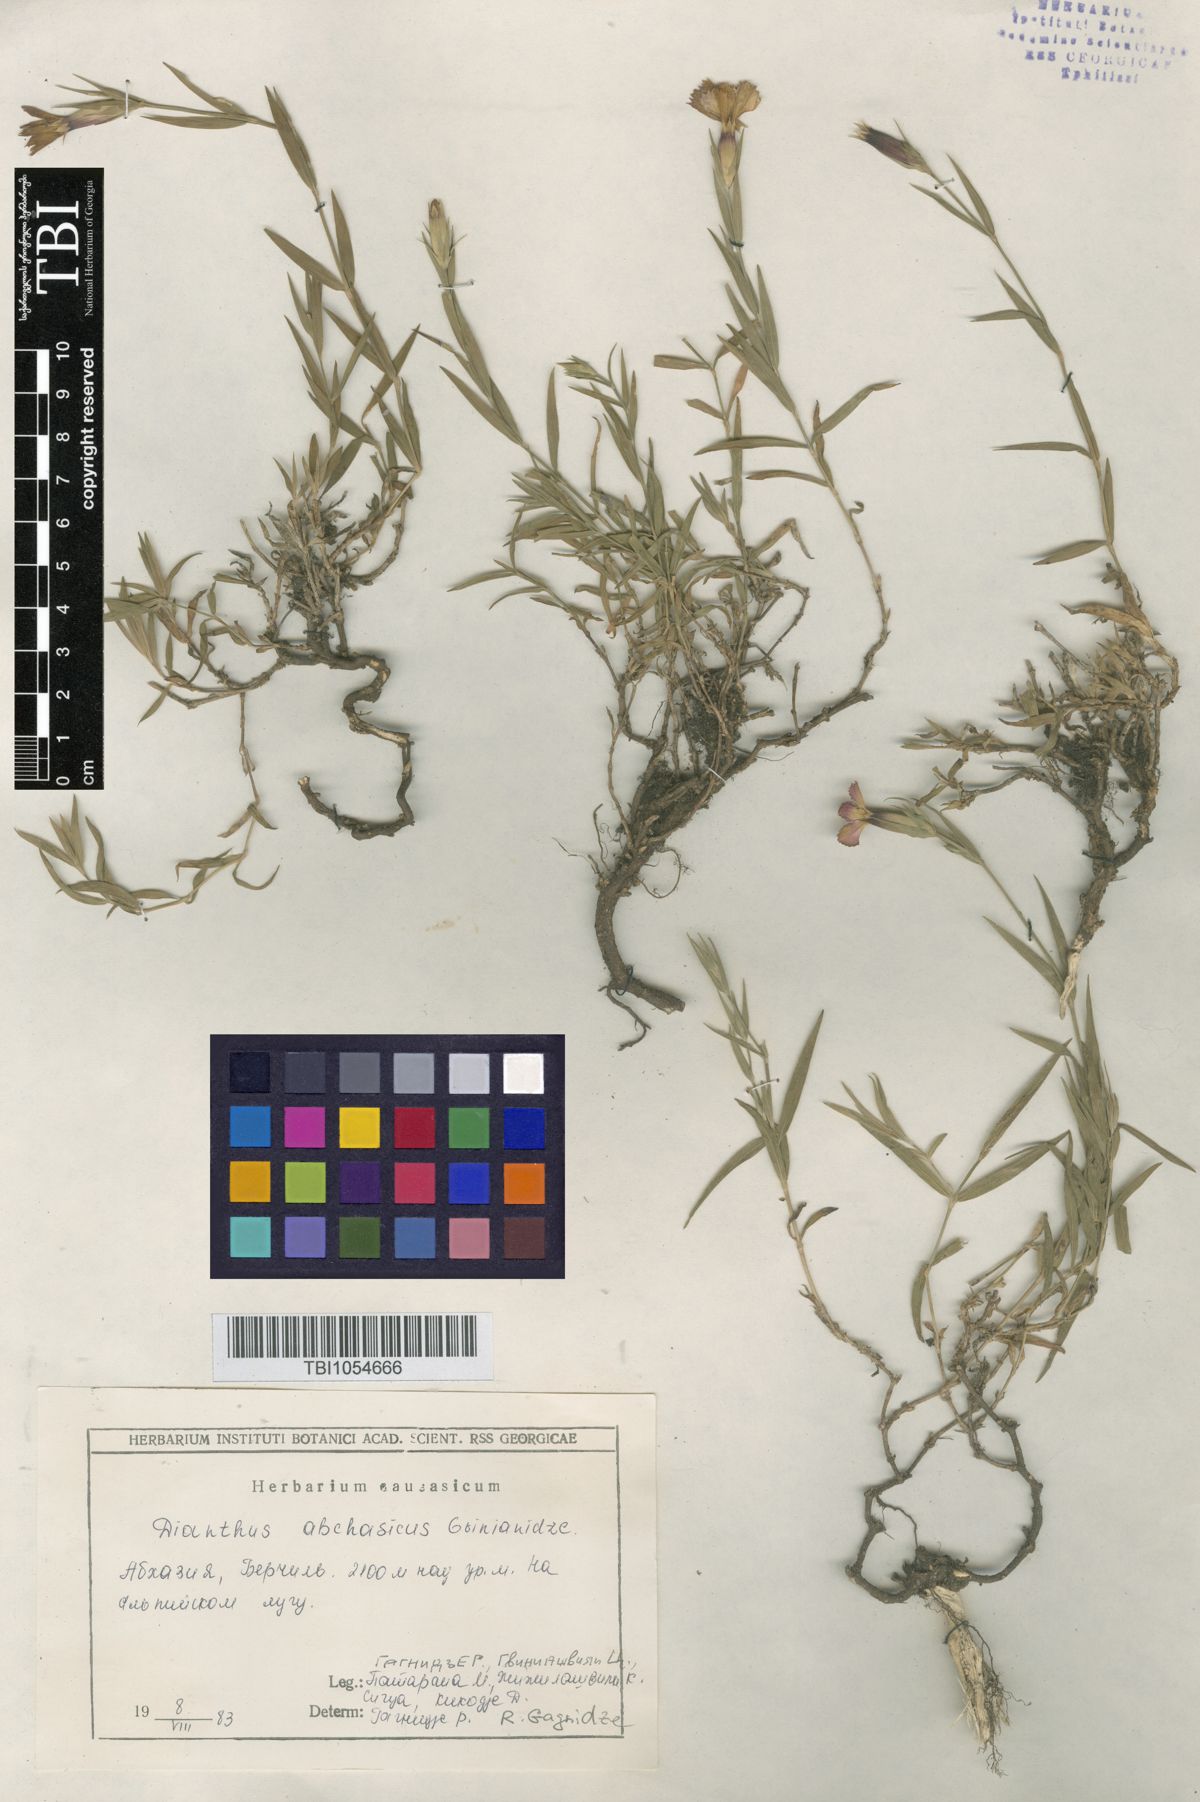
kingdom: Plantae
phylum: Tracheophyta
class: Magnoliopsida
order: Caryophyllales
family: Caryophyllaceae
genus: Dianthus
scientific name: Dianthus kusnezovii
